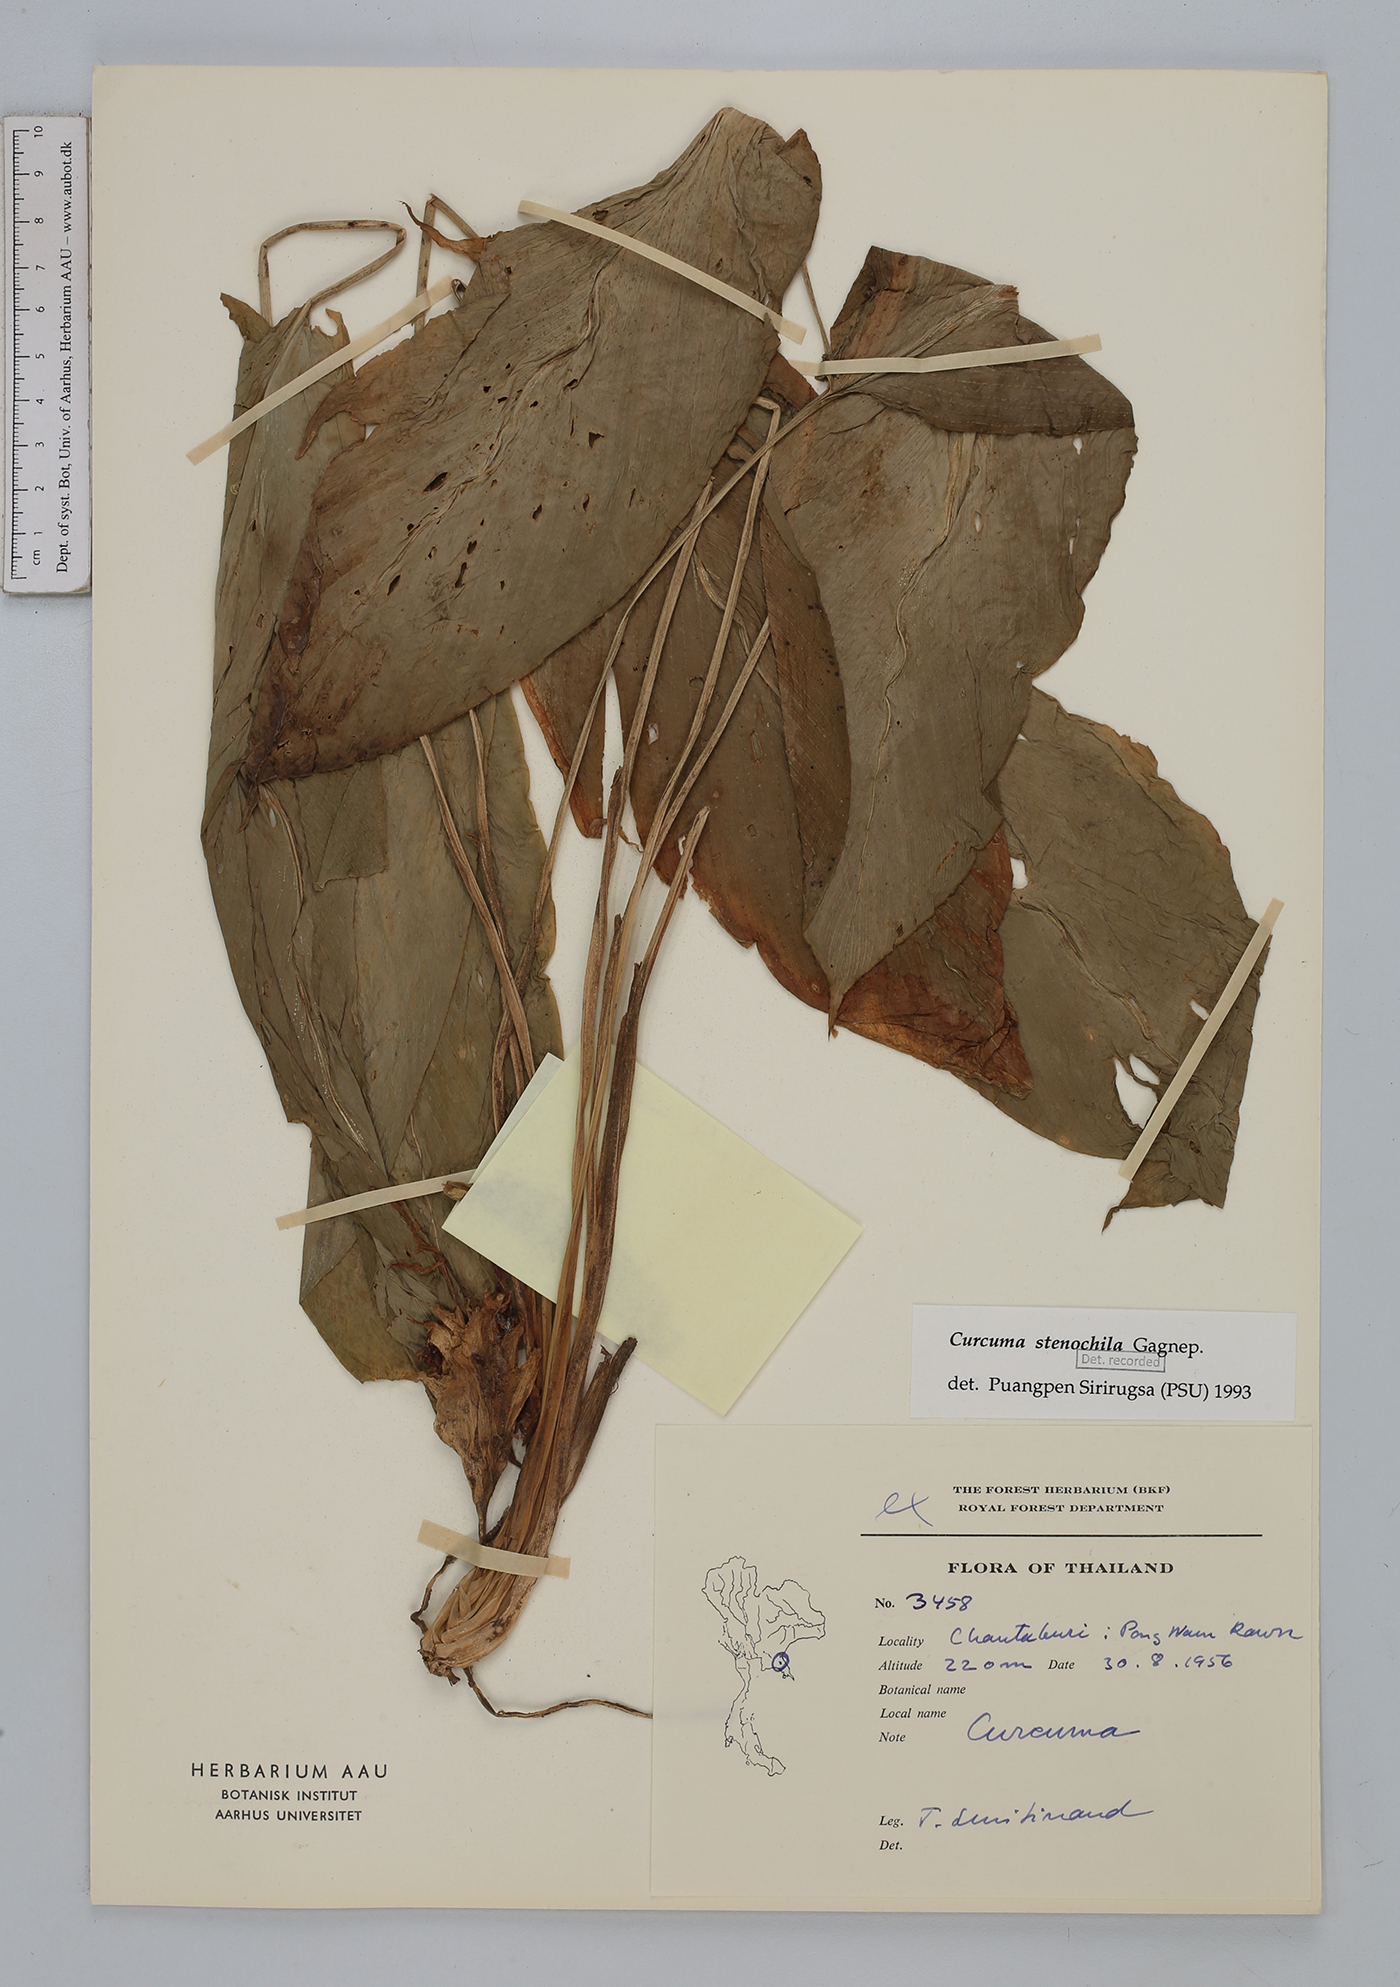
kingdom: Plantae
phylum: Tracheophyta
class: Liliopsida
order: Zingiberales
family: Zingiberaceae
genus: Curcuma
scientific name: Curcuma stenochila
